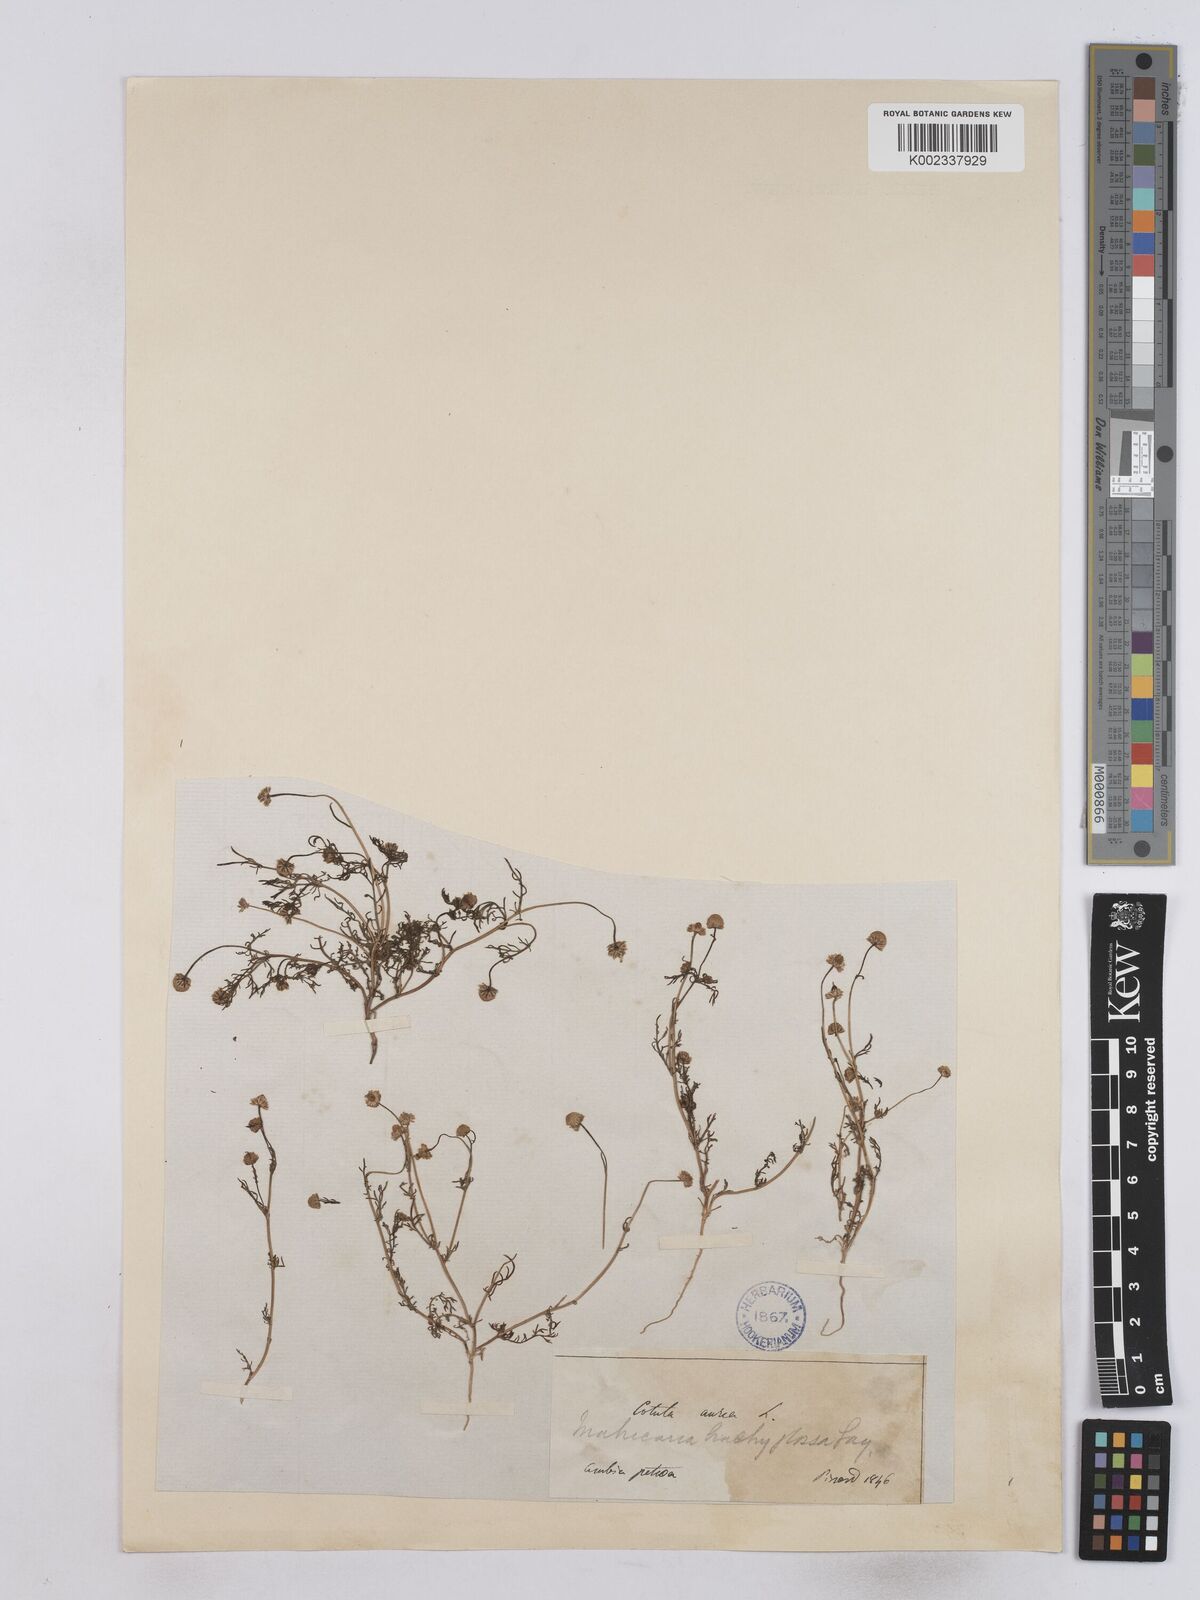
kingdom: Plantae
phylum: Tracheophyta
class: Magnoliopsida
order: Asterales
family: Asteraceae
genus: Matricaria
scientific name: Matricaria aurea
